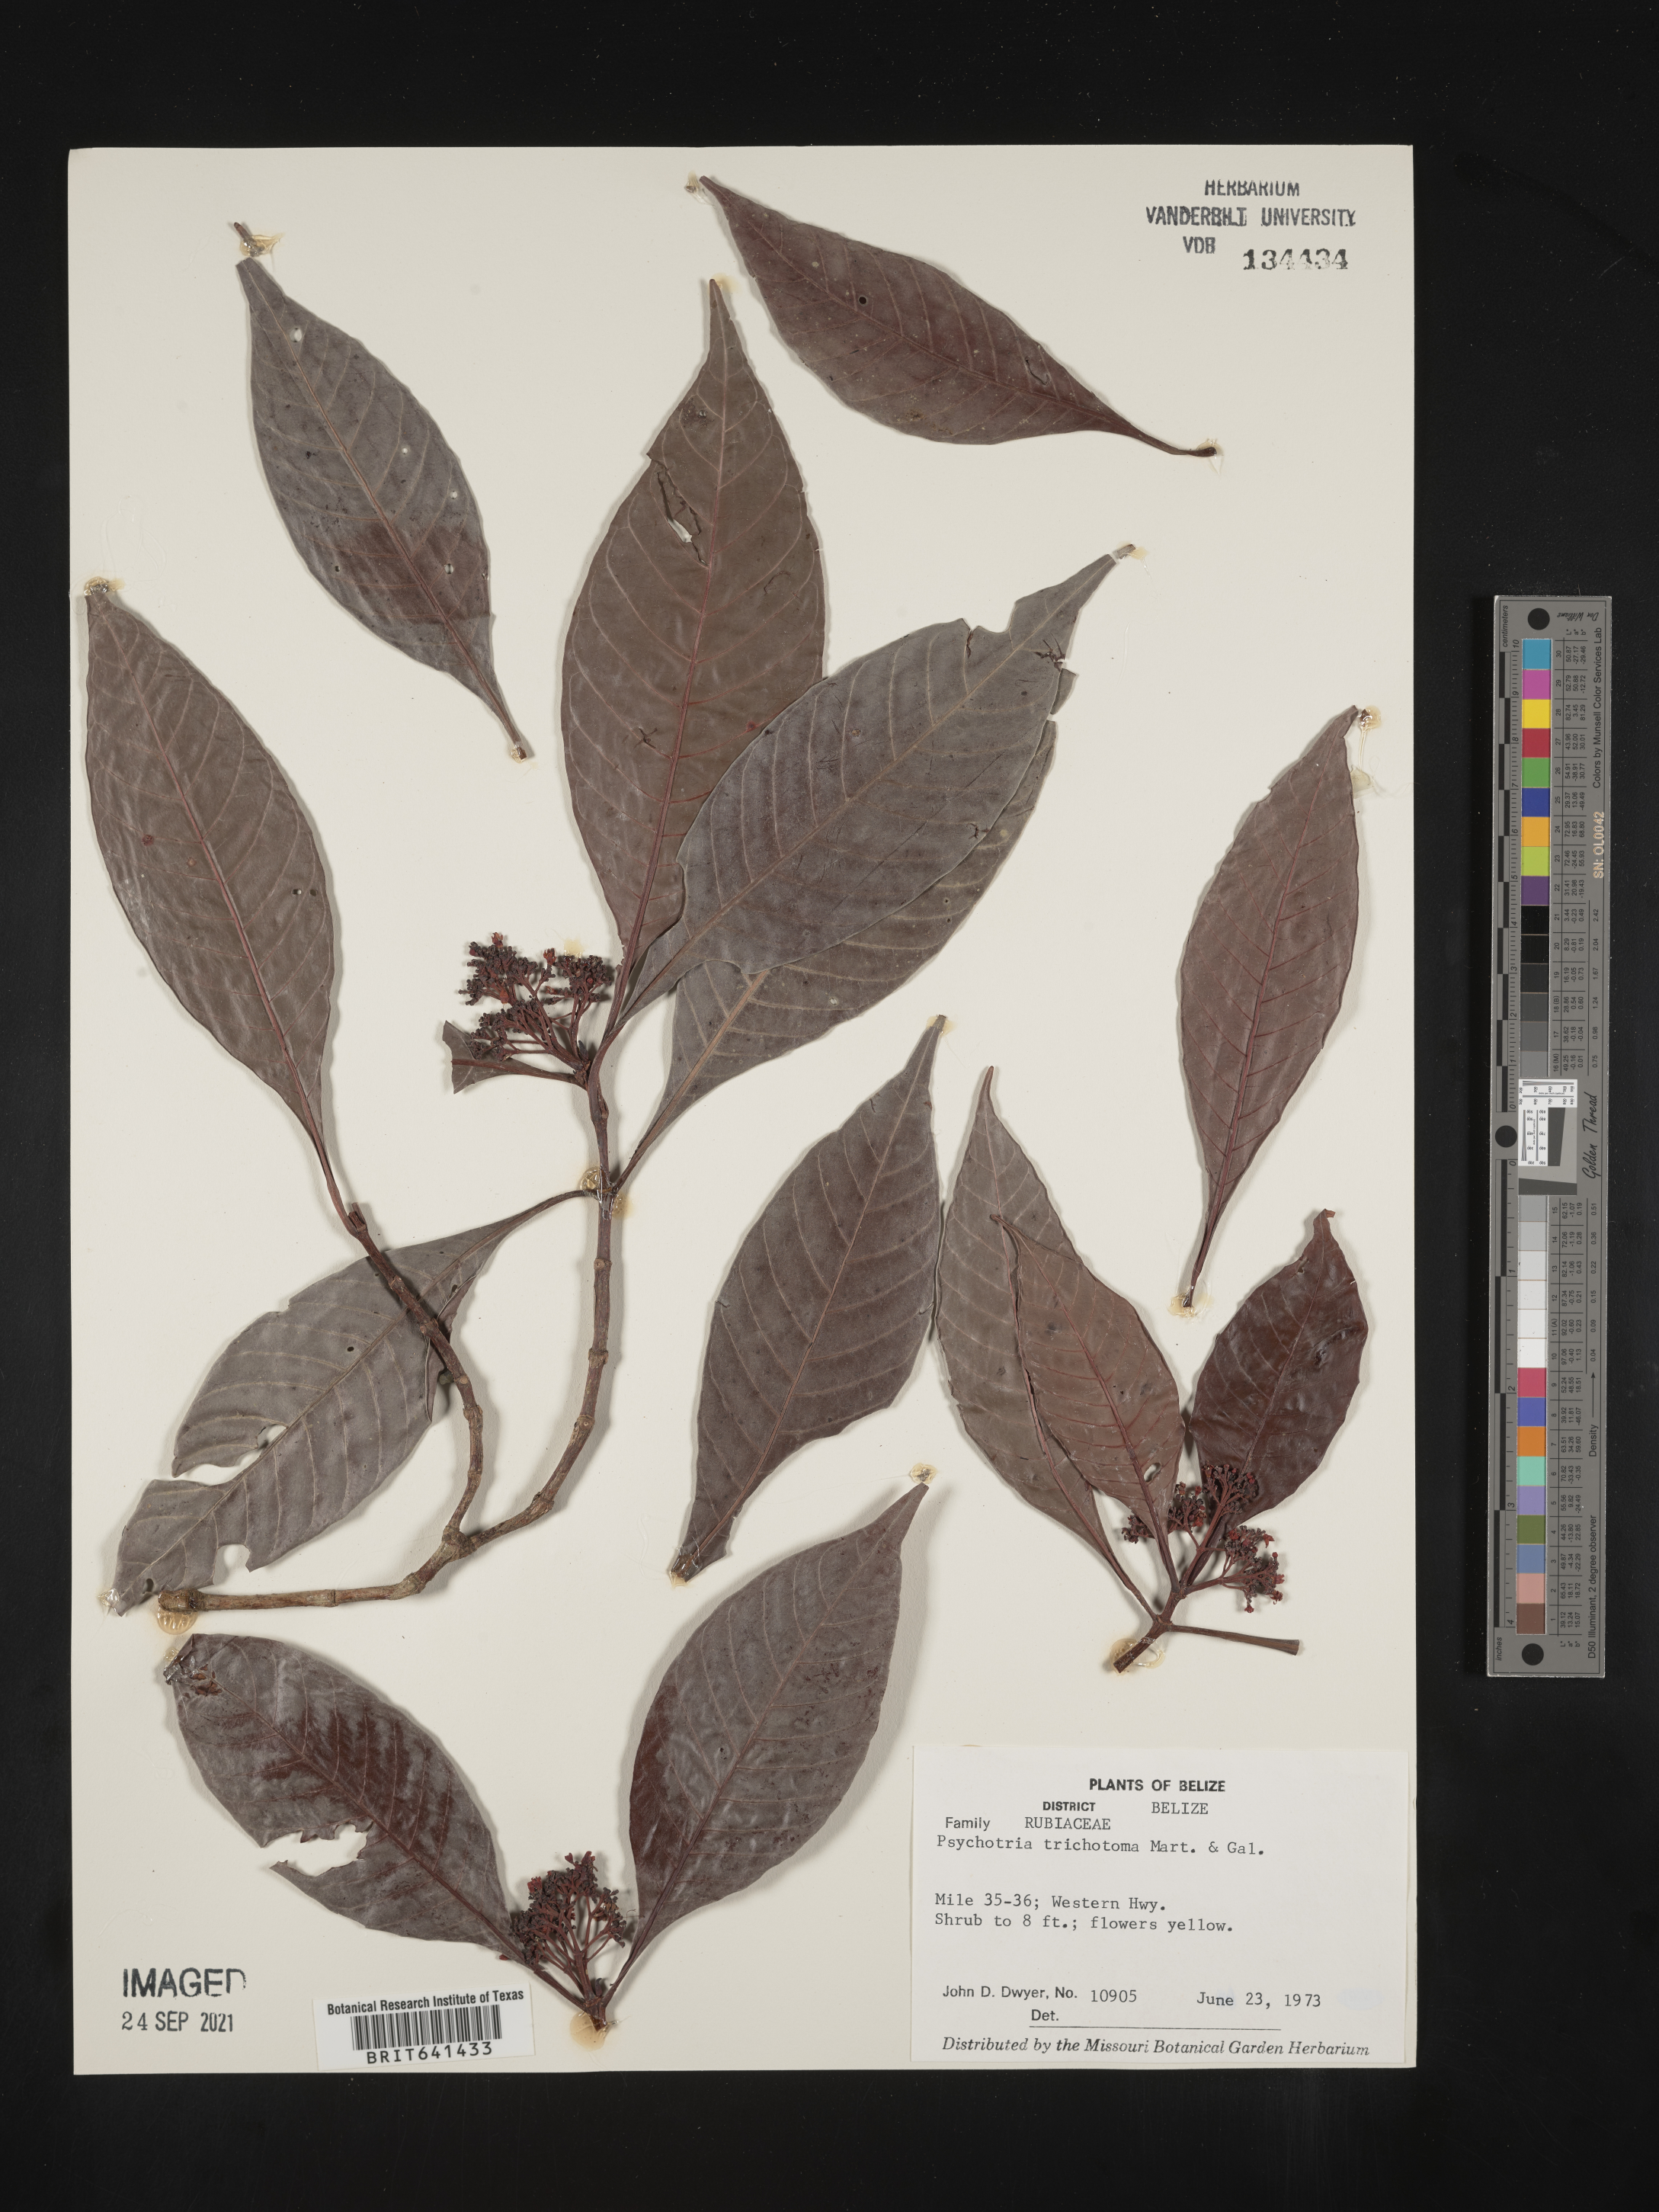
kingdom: Plantae
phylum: Tracheophyta
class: Magnoliopsida
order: Gentianales
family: Rubiaceae
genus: Psychotria
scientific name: Psychotria
